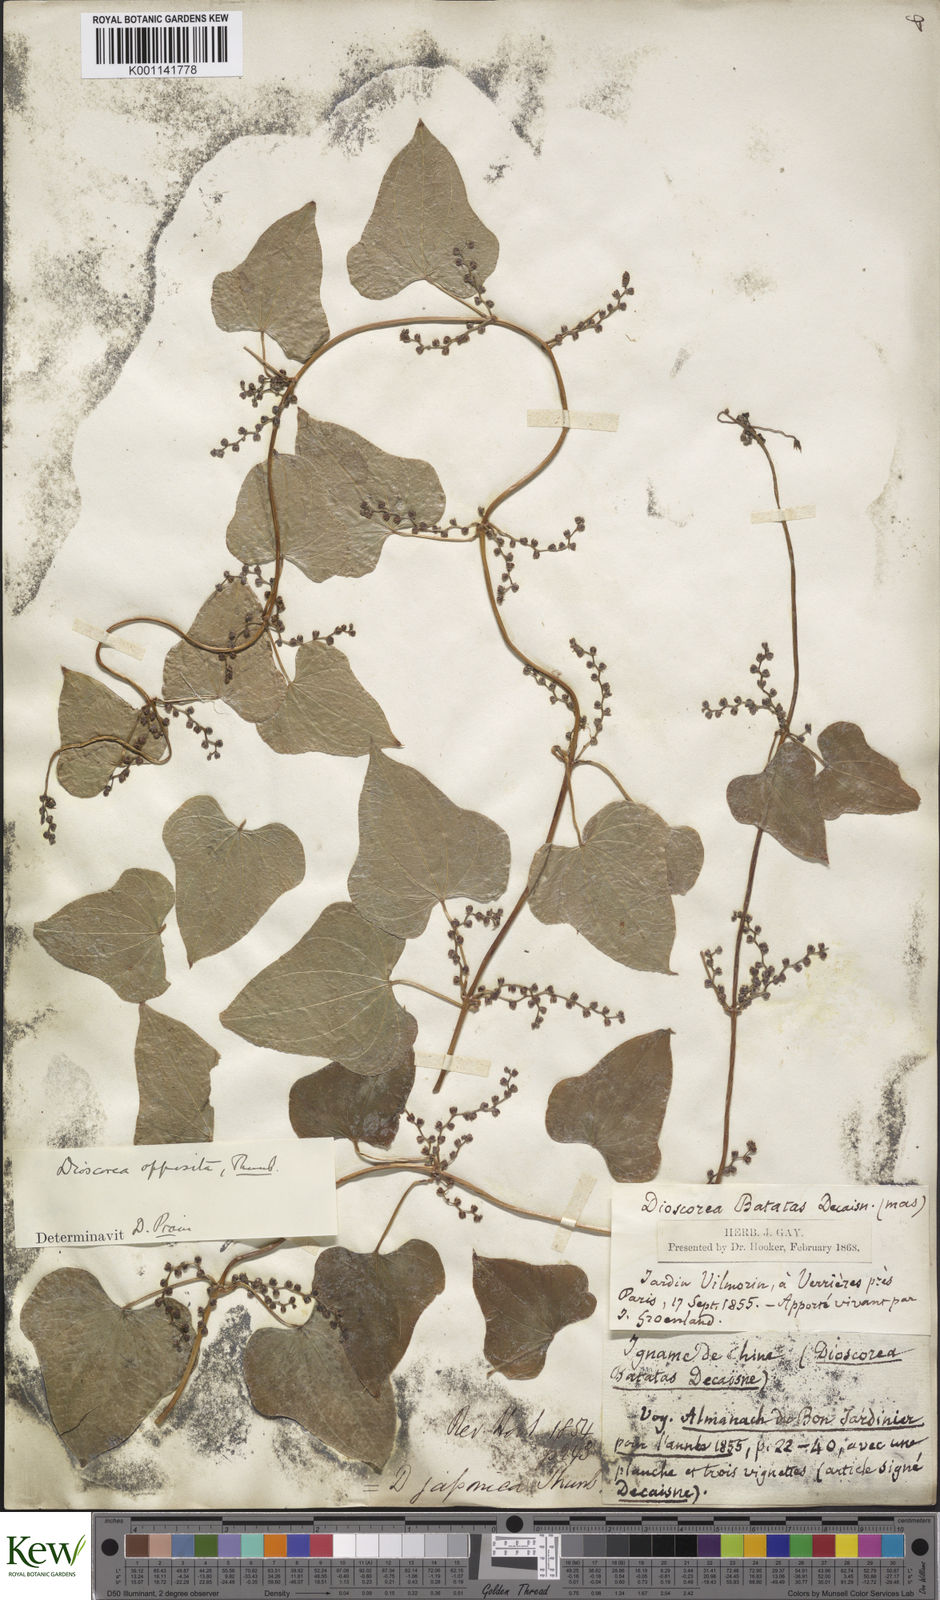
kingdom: Plantae
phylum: Tracheophyta
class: Liliopsida
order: Dioscoreales
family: Dioscoreaceae
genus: Dioscorea
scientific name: Dioscorea oppositifolia
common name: Chinese yam
